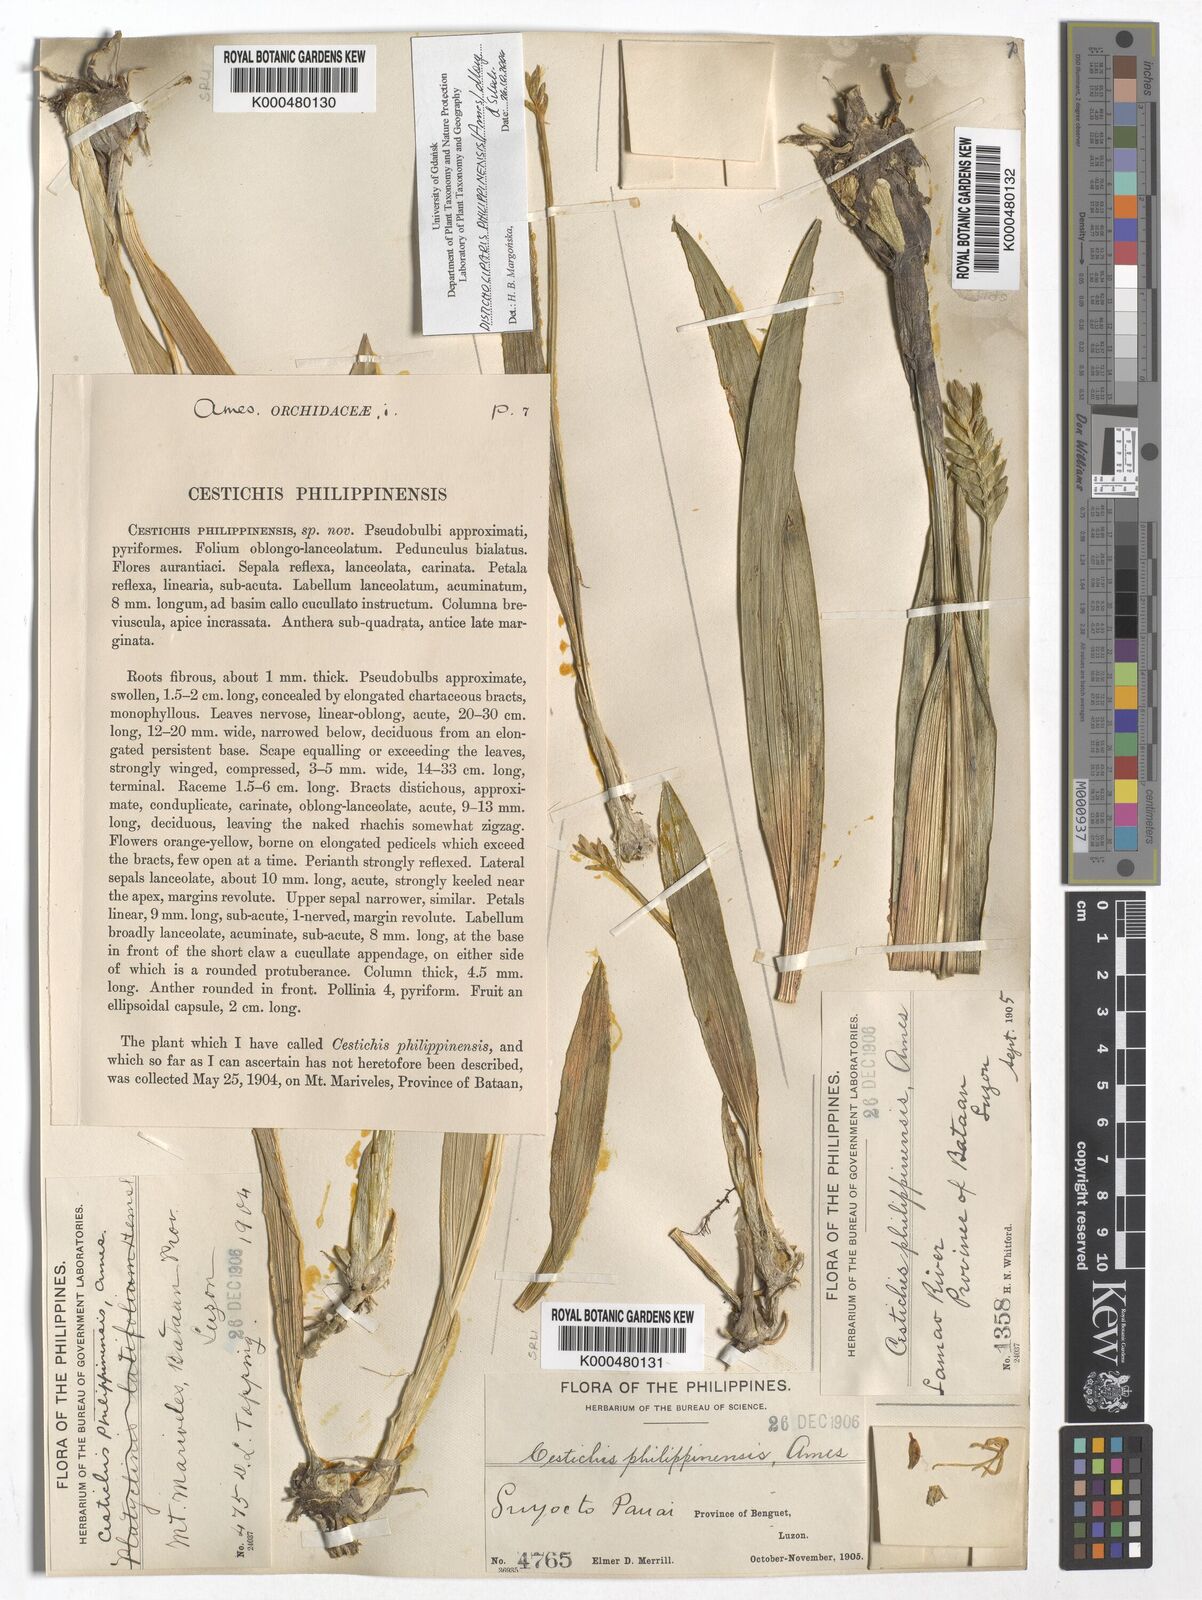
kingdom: Plantae
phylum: Tracheophyta
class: Liliopsida
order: Asparagales
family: Orchidaceae
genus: Liparis
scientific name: Liparis philippinensis
